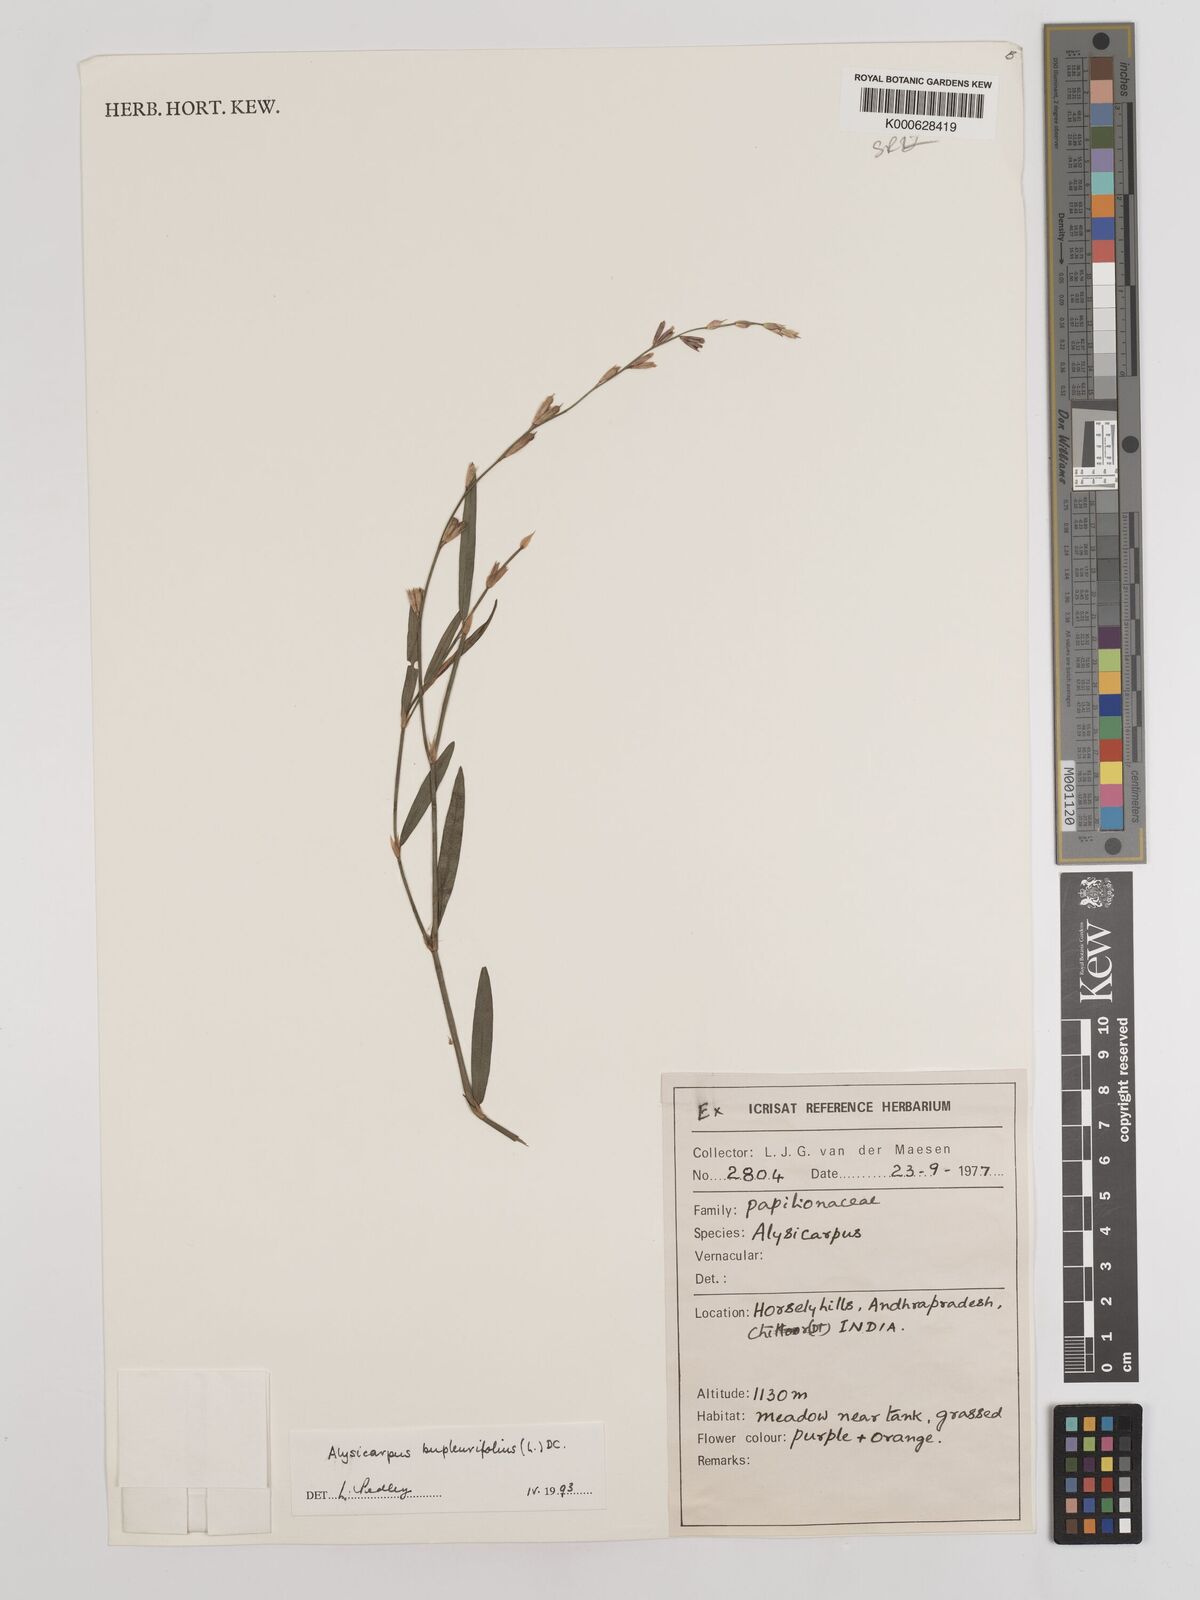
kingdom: Plantae
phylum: Tracheophyta
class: Magnoliopsida
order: Fabales
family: Fabaceae
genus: Alysicarpus
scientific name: Alysicarpus bupleurifolius
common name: Sweet alys
